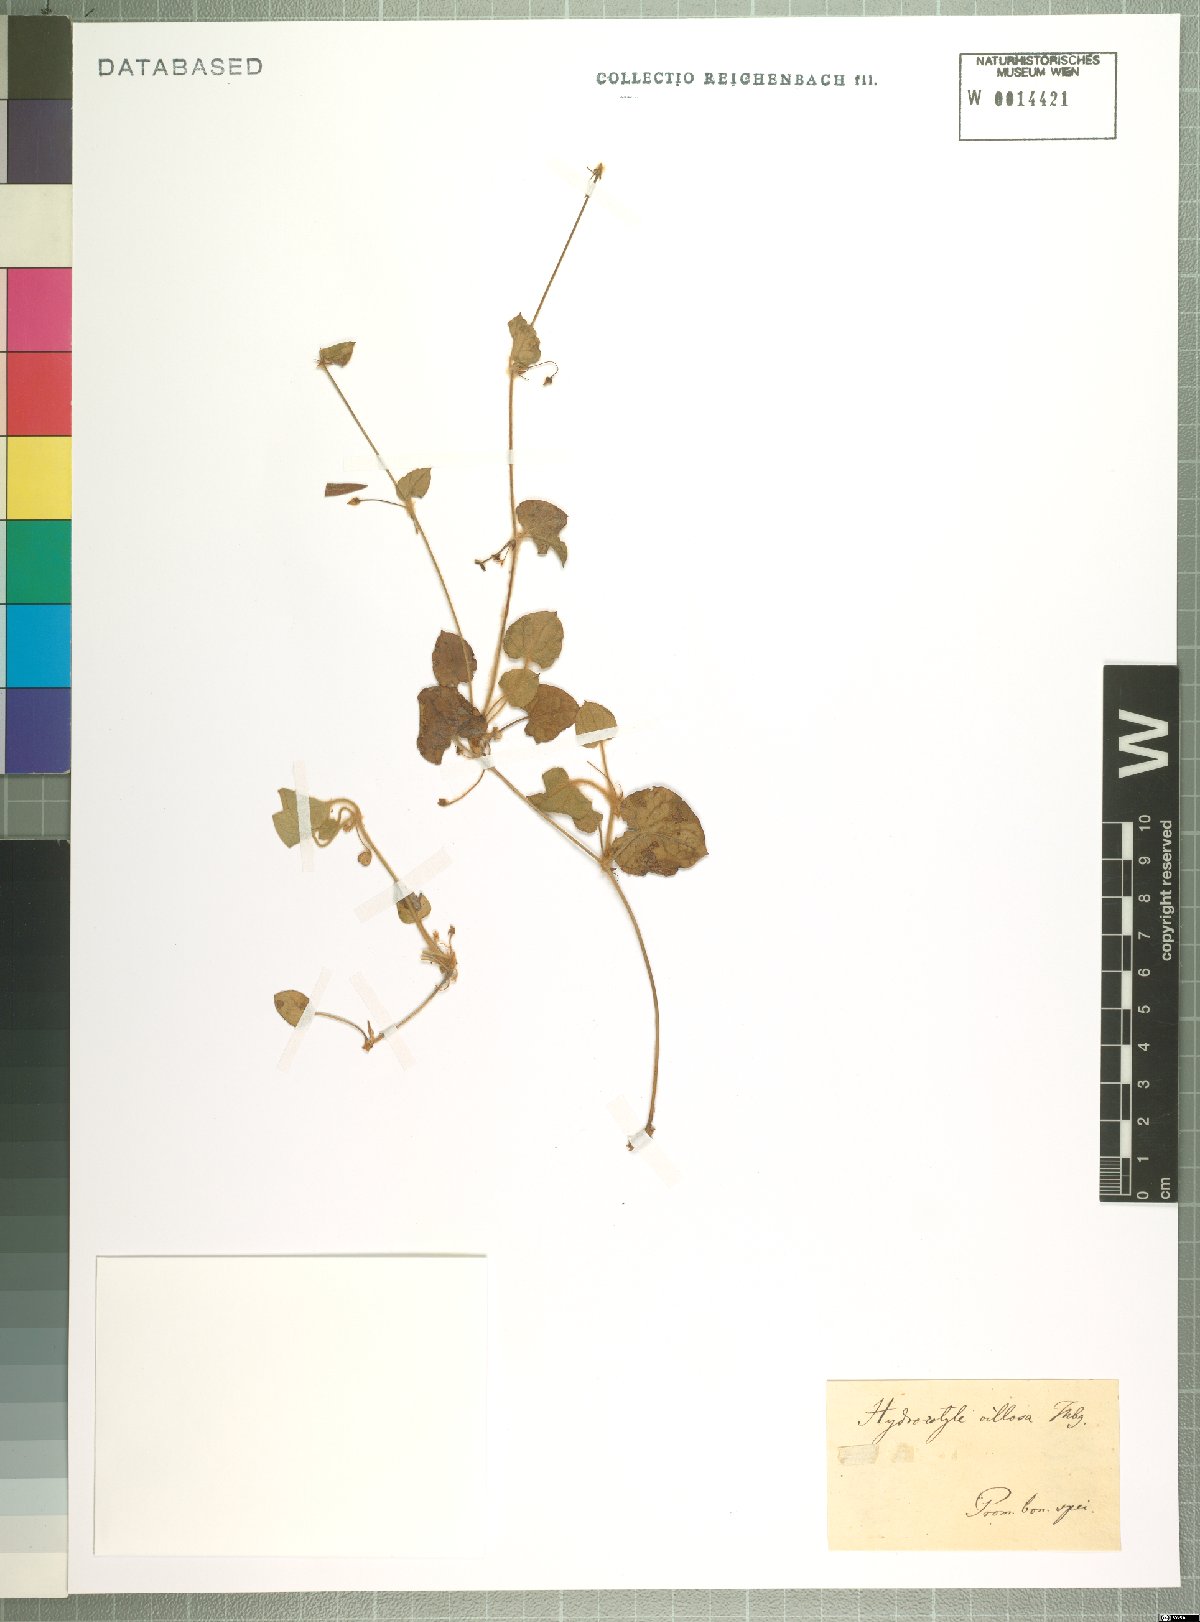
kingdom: Plantae
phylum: Tracheophyta
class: Magnoliopsida
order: Apiales
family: Apiaceae
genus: Centella
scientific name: Centella villosa
